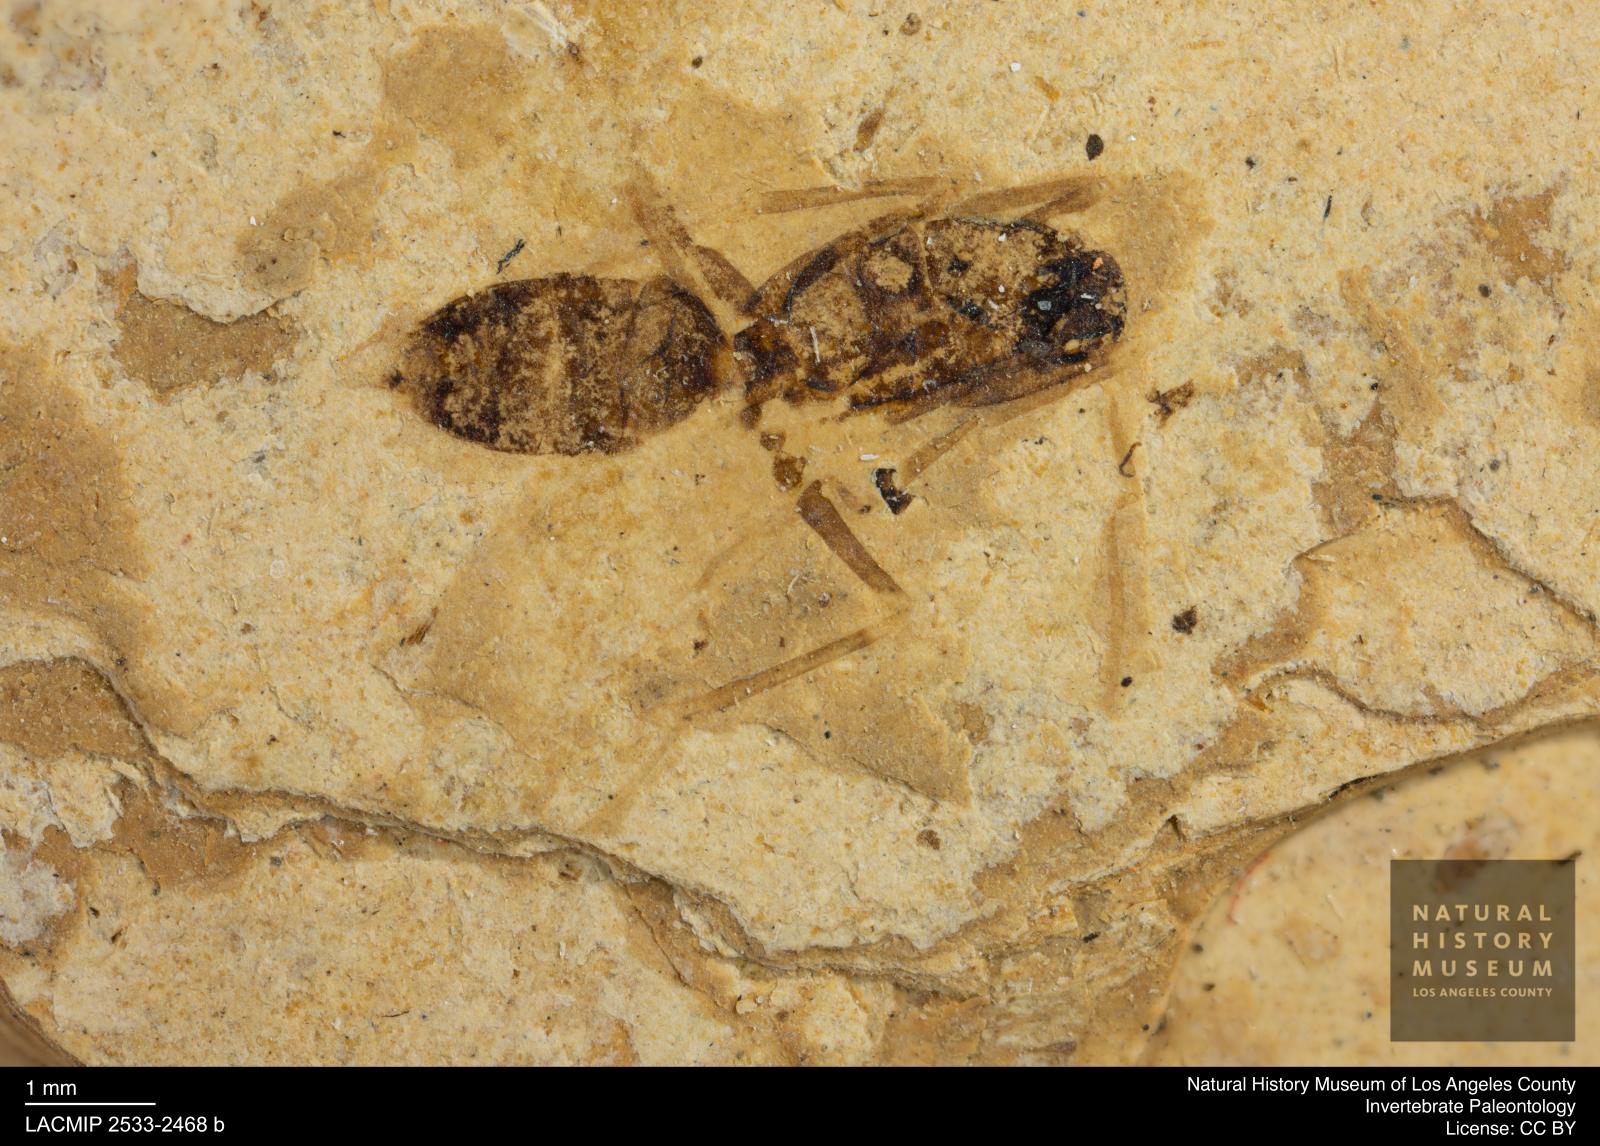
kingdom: Animalia
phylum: Arthropoda
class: Insecta
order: Hymenoptera
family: Formicidae
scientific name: Formicidae
